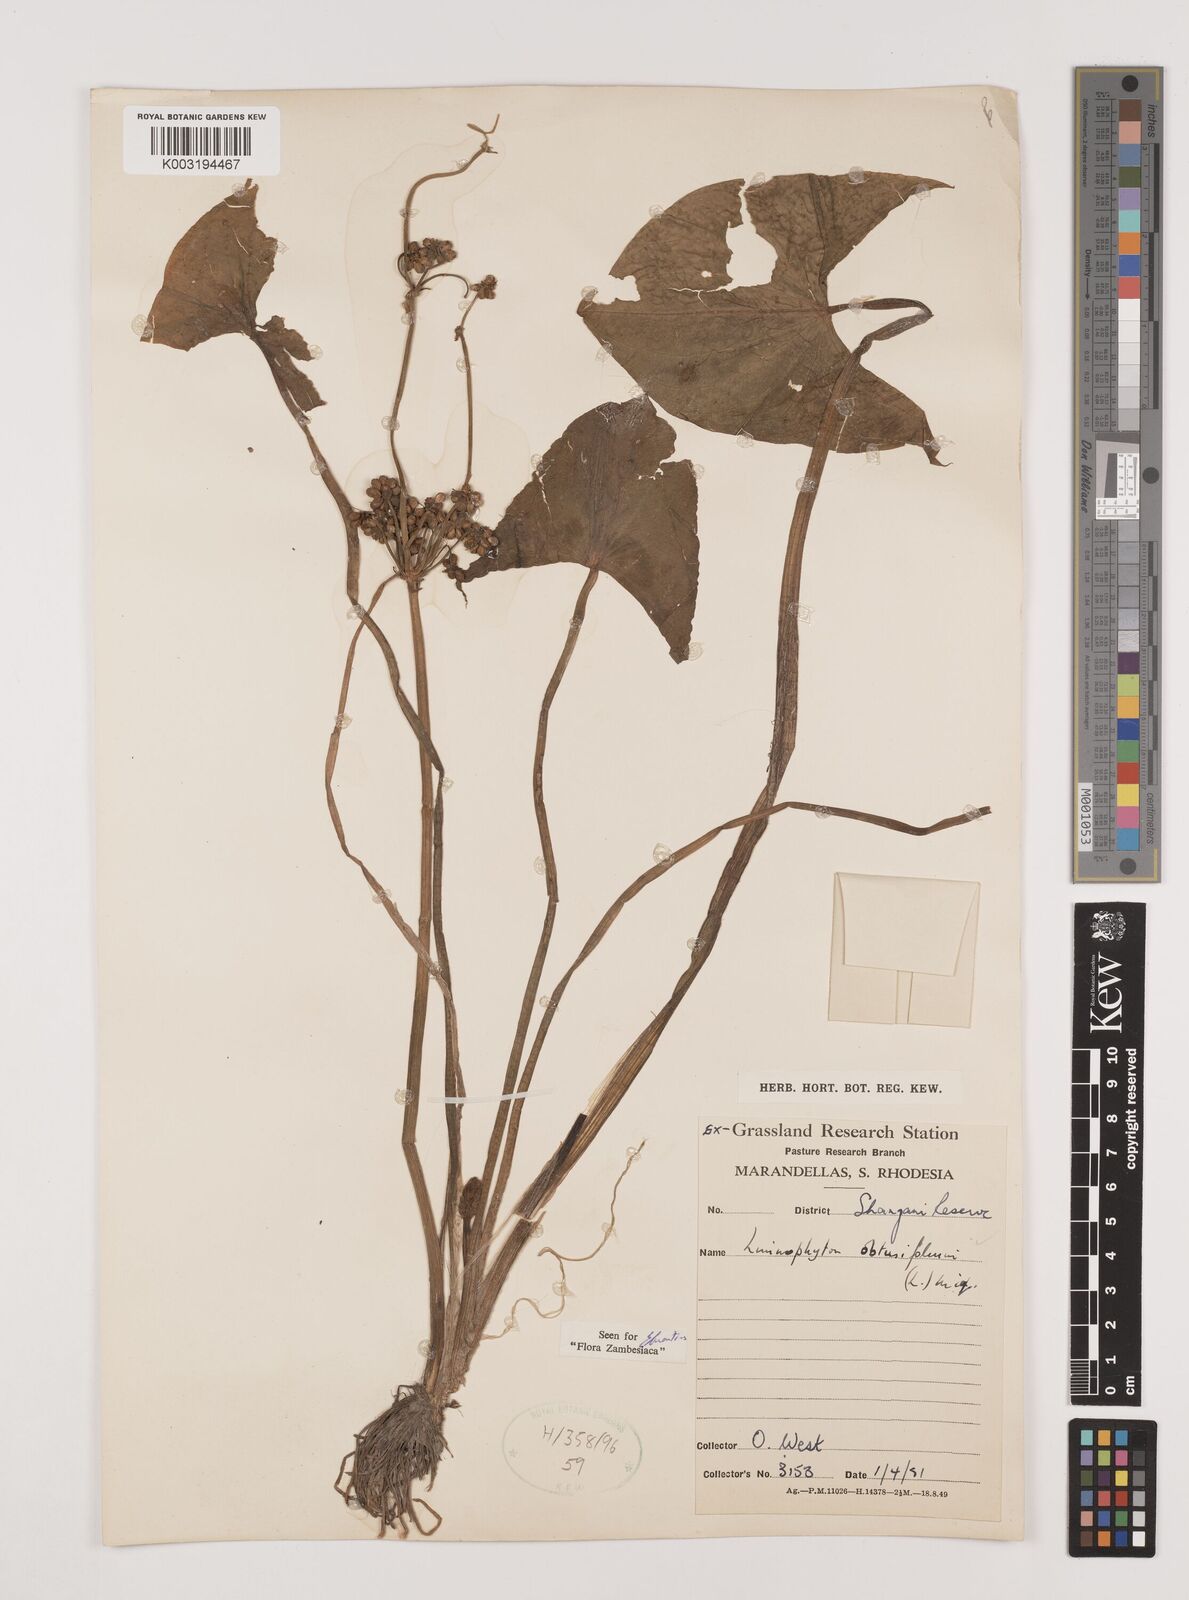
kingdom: Plantae
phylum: Tracheophyta
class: Liliopsida
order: Alismatales
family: Alismataceae
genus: Limnophyton
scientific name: Limnophyton obtusifolium
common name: Arrow head
